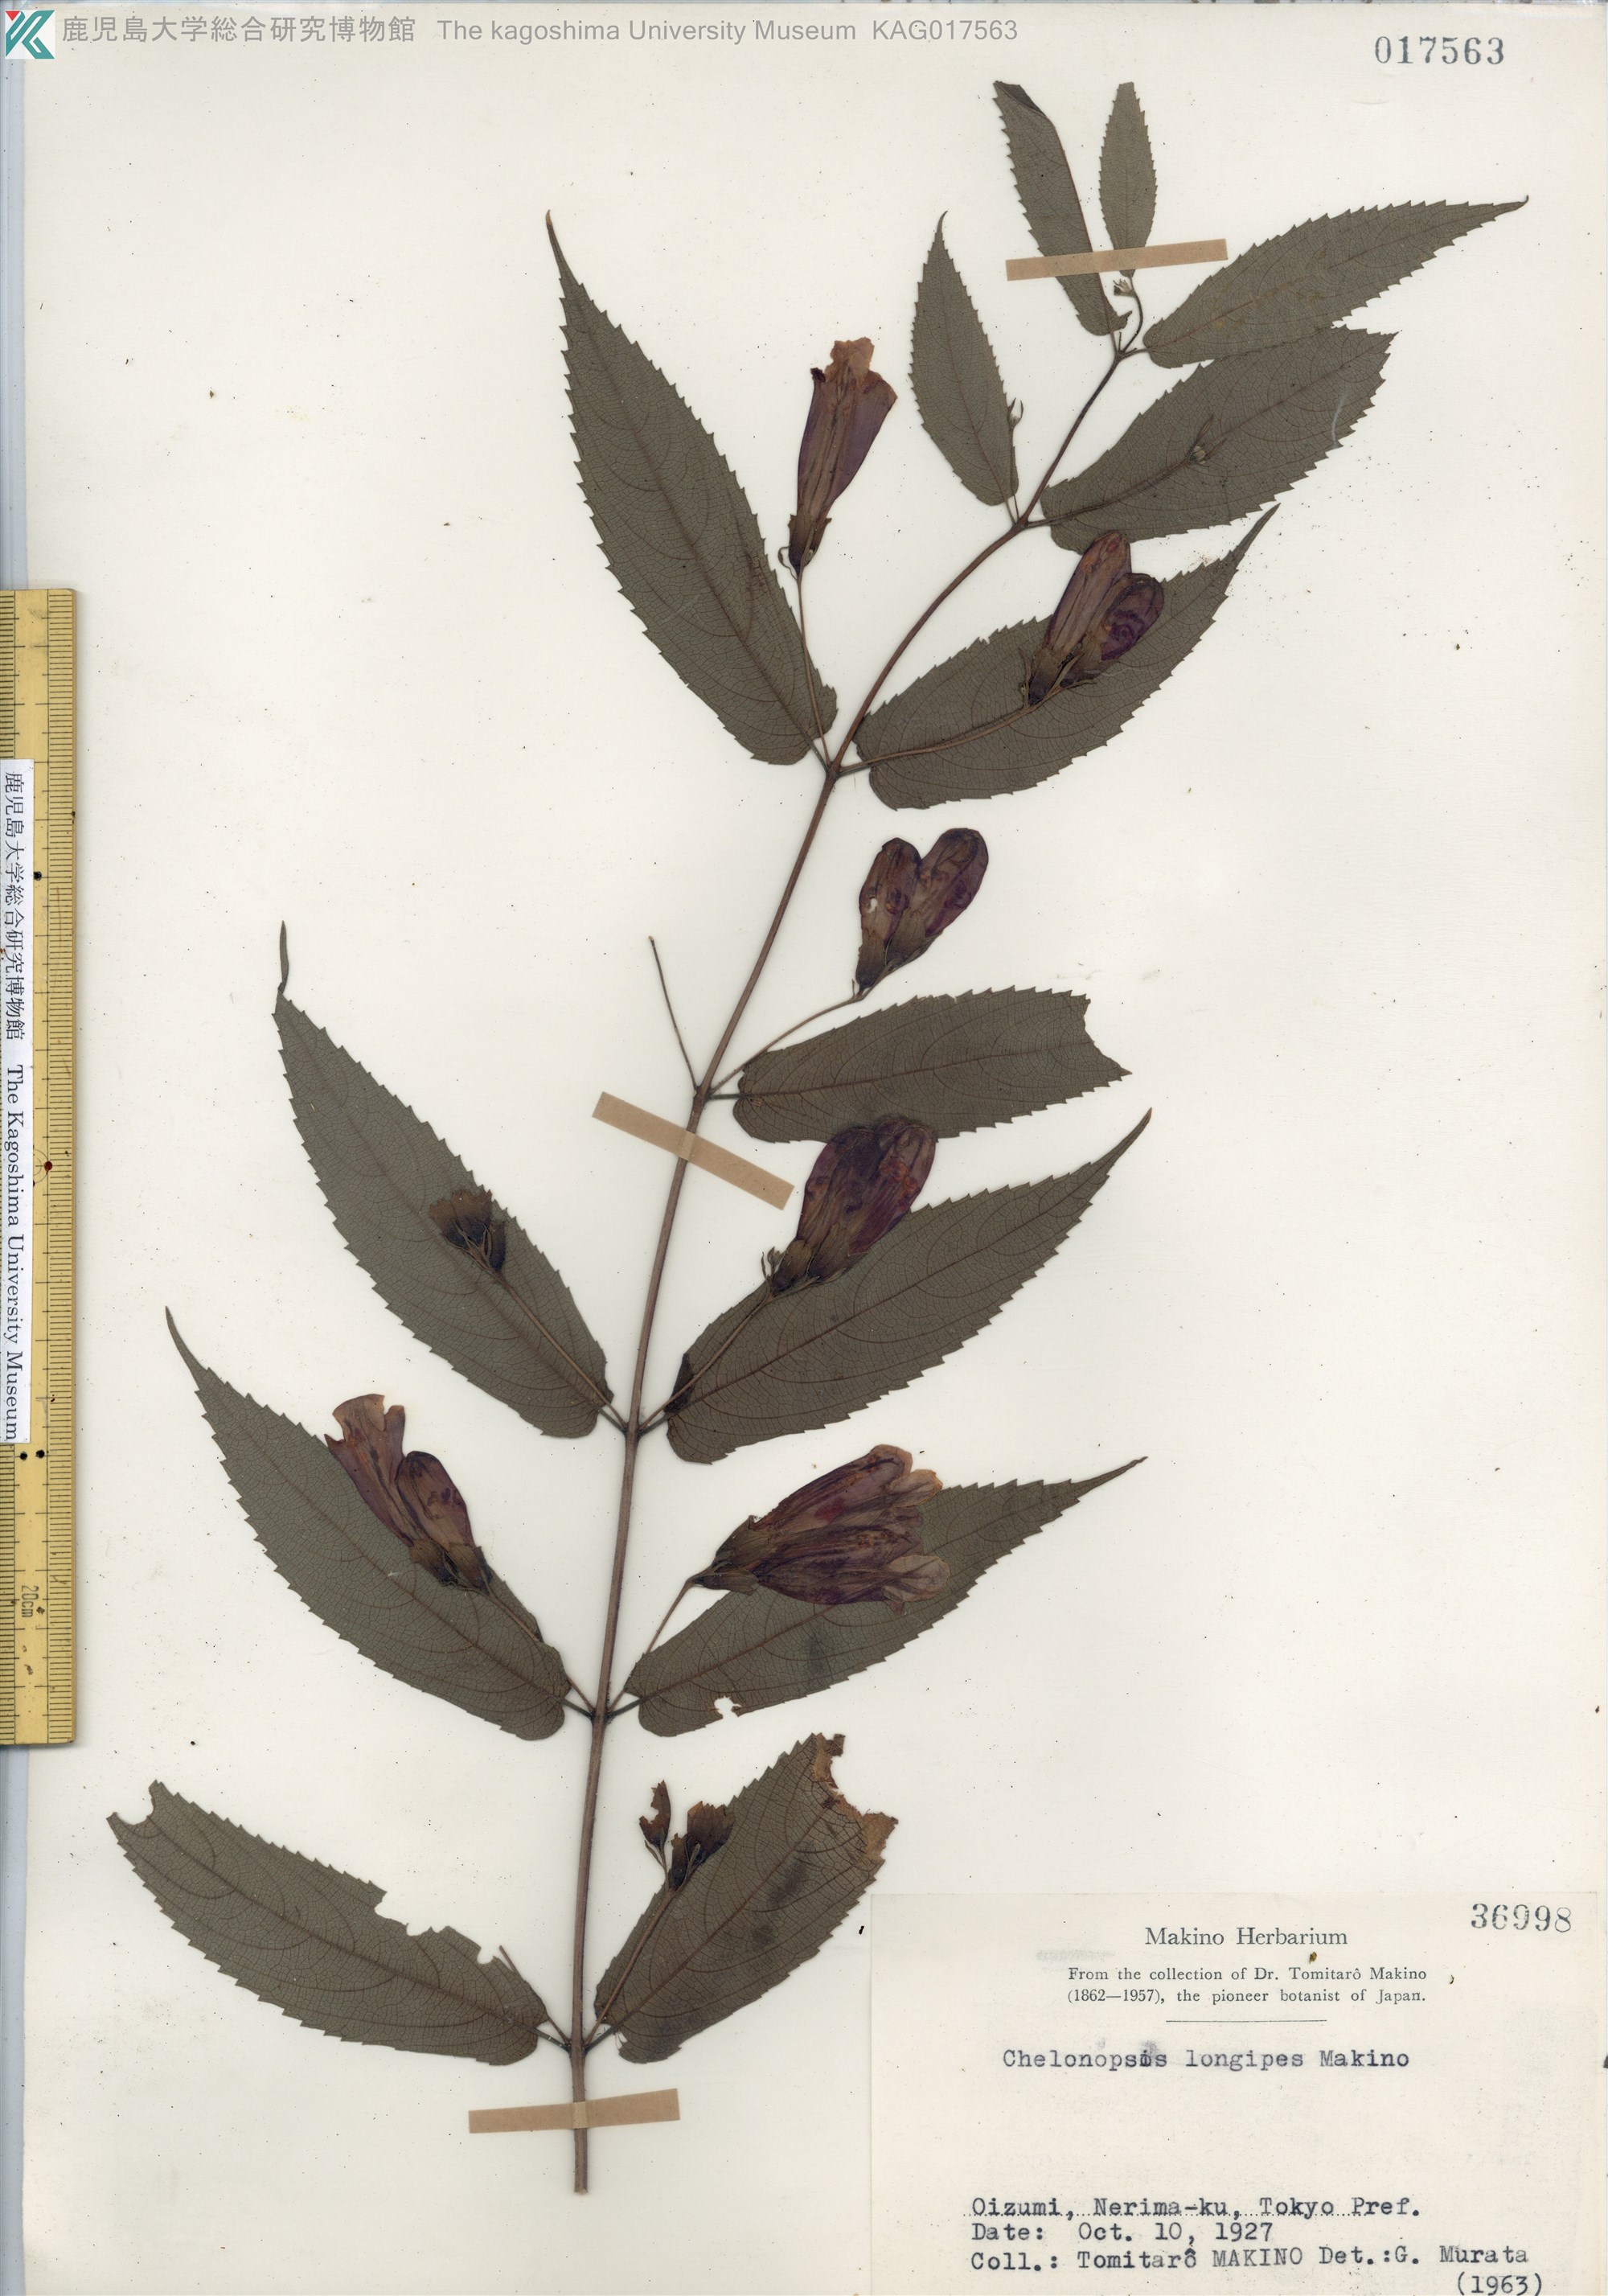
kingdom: Plantae
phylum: Tracheophyta
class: Magnoliopsida
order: Lamiales
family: Lamiaceae
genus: Chelonopsis
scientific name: Chelonopsis longipes
